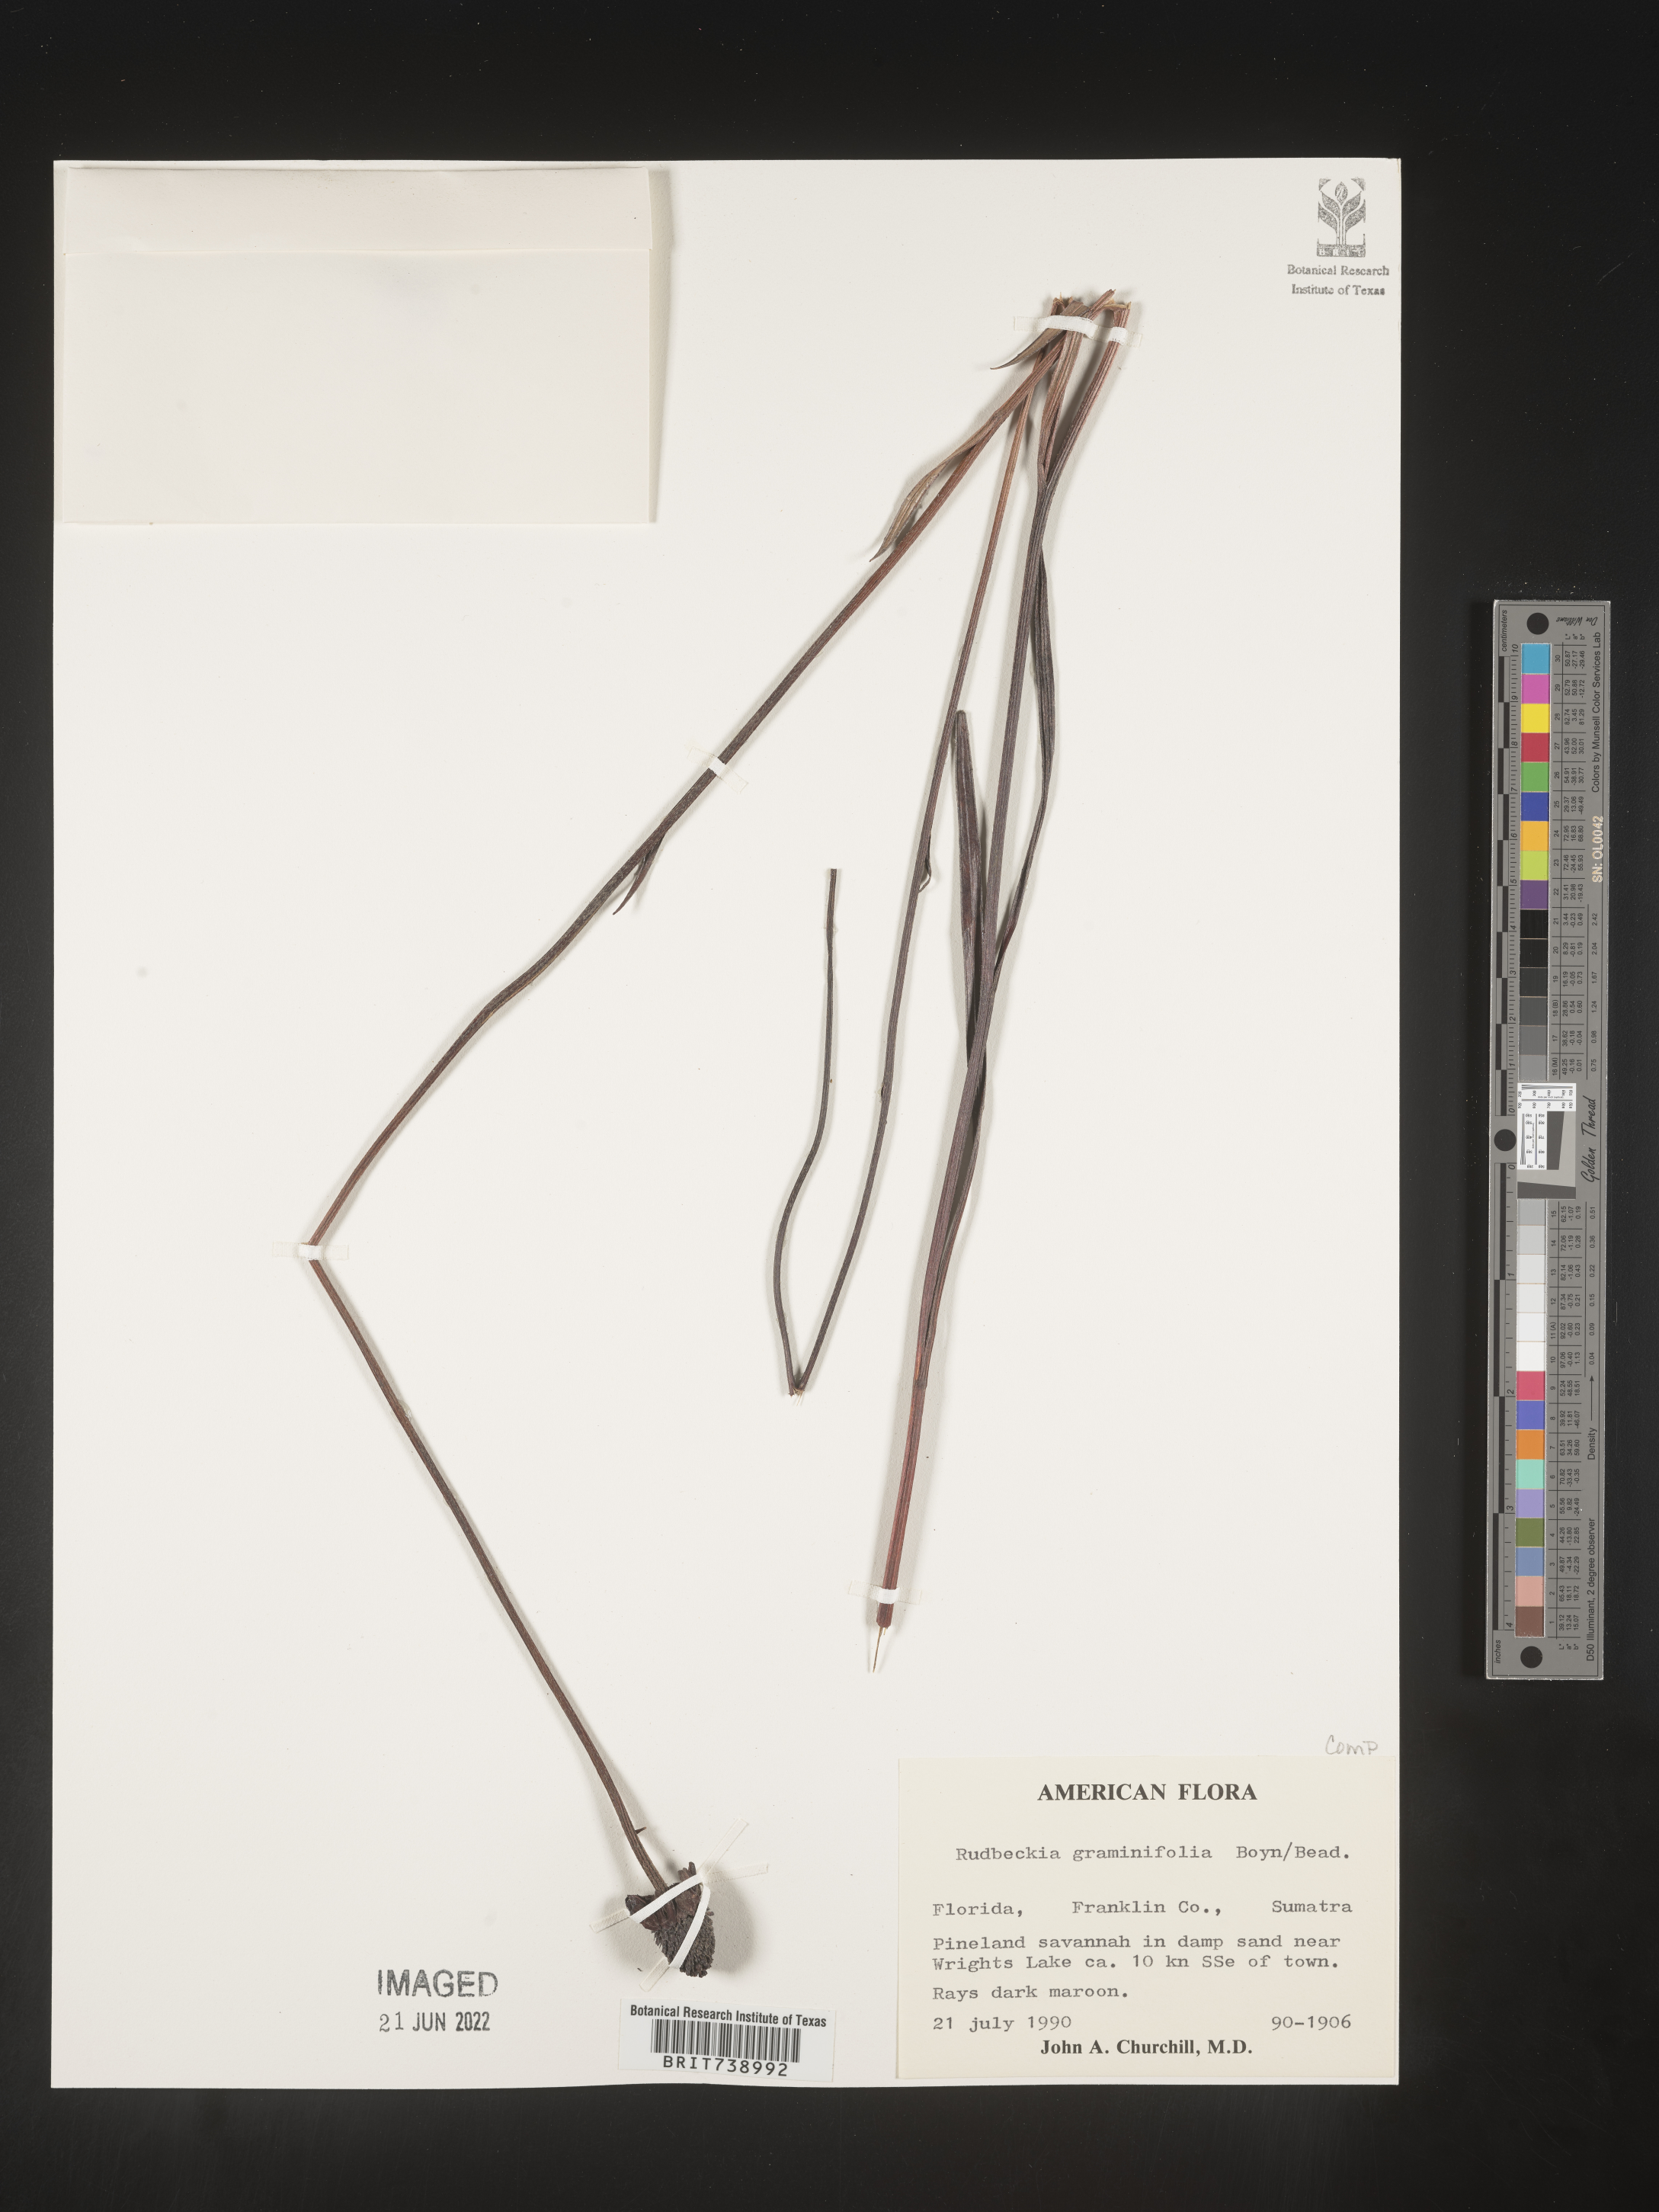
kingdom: Plantae
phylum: Tracheophyta
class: Magnoliopsida
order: Asterales
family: Asteraceae
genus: Rudbeckia
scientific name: Rudbeckia graminifolia
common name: Grass-leaf coneflower
